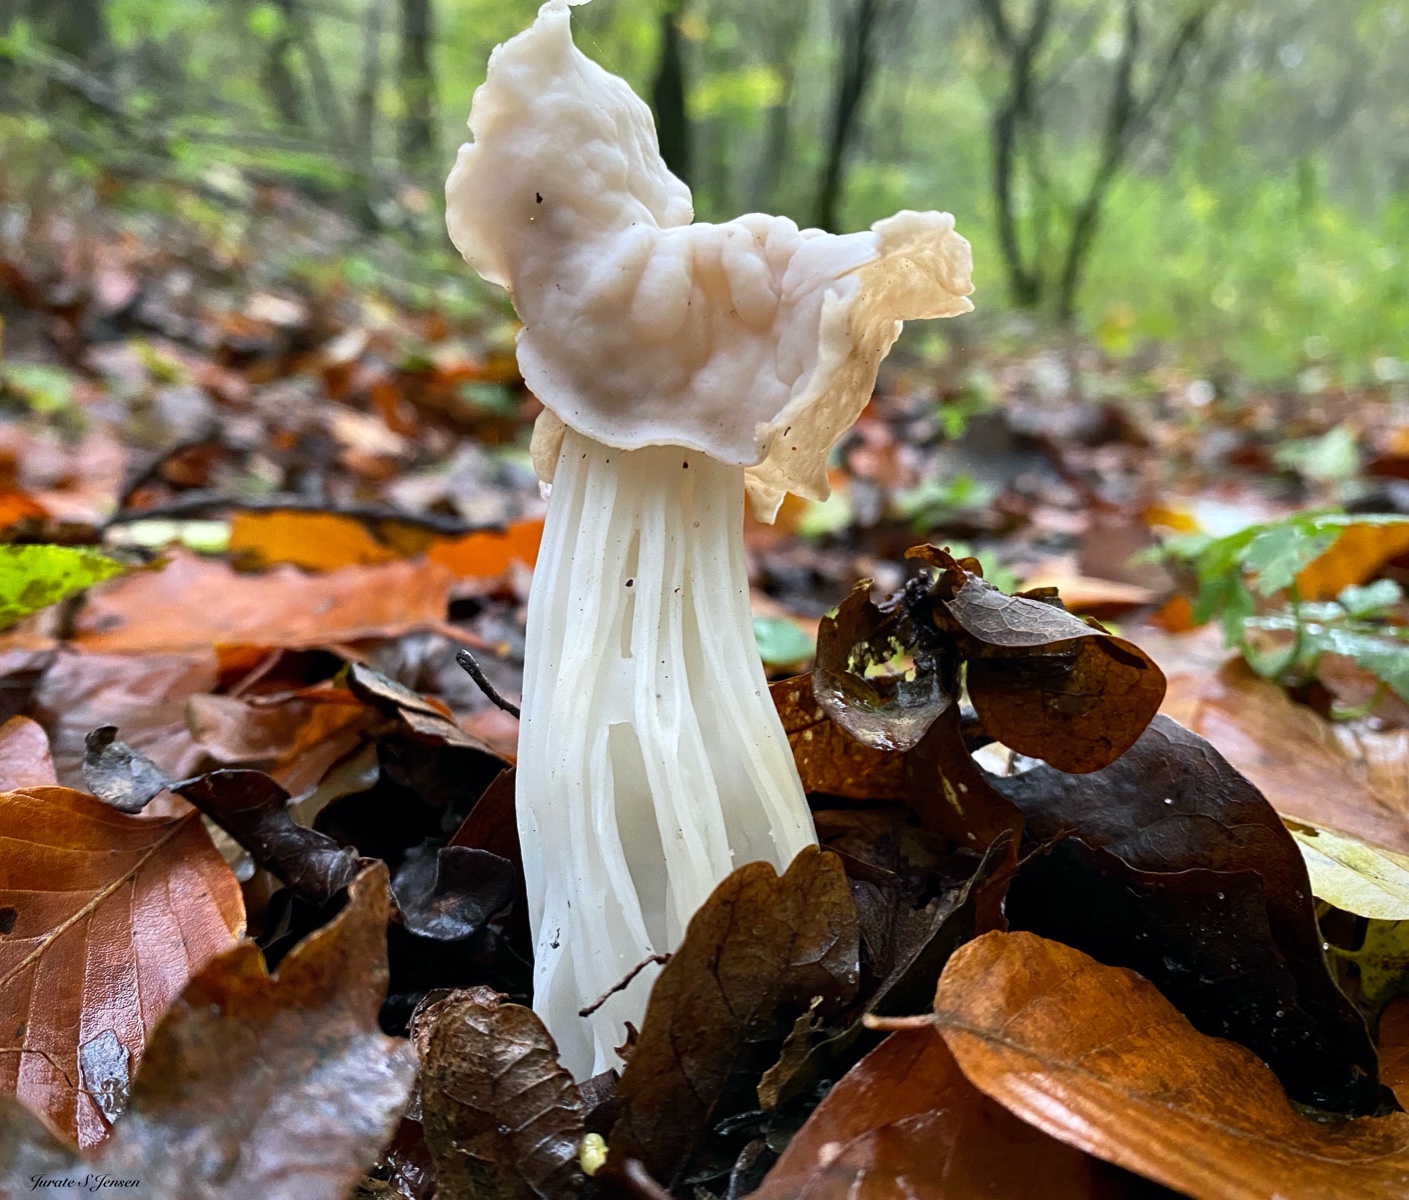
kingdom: Fungi
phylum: Ascomycota
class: Pezizomycetes
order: Pezizales
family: Helvellaceae
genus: Helvella
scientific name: Helvella crispa
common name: kruset foldhat
